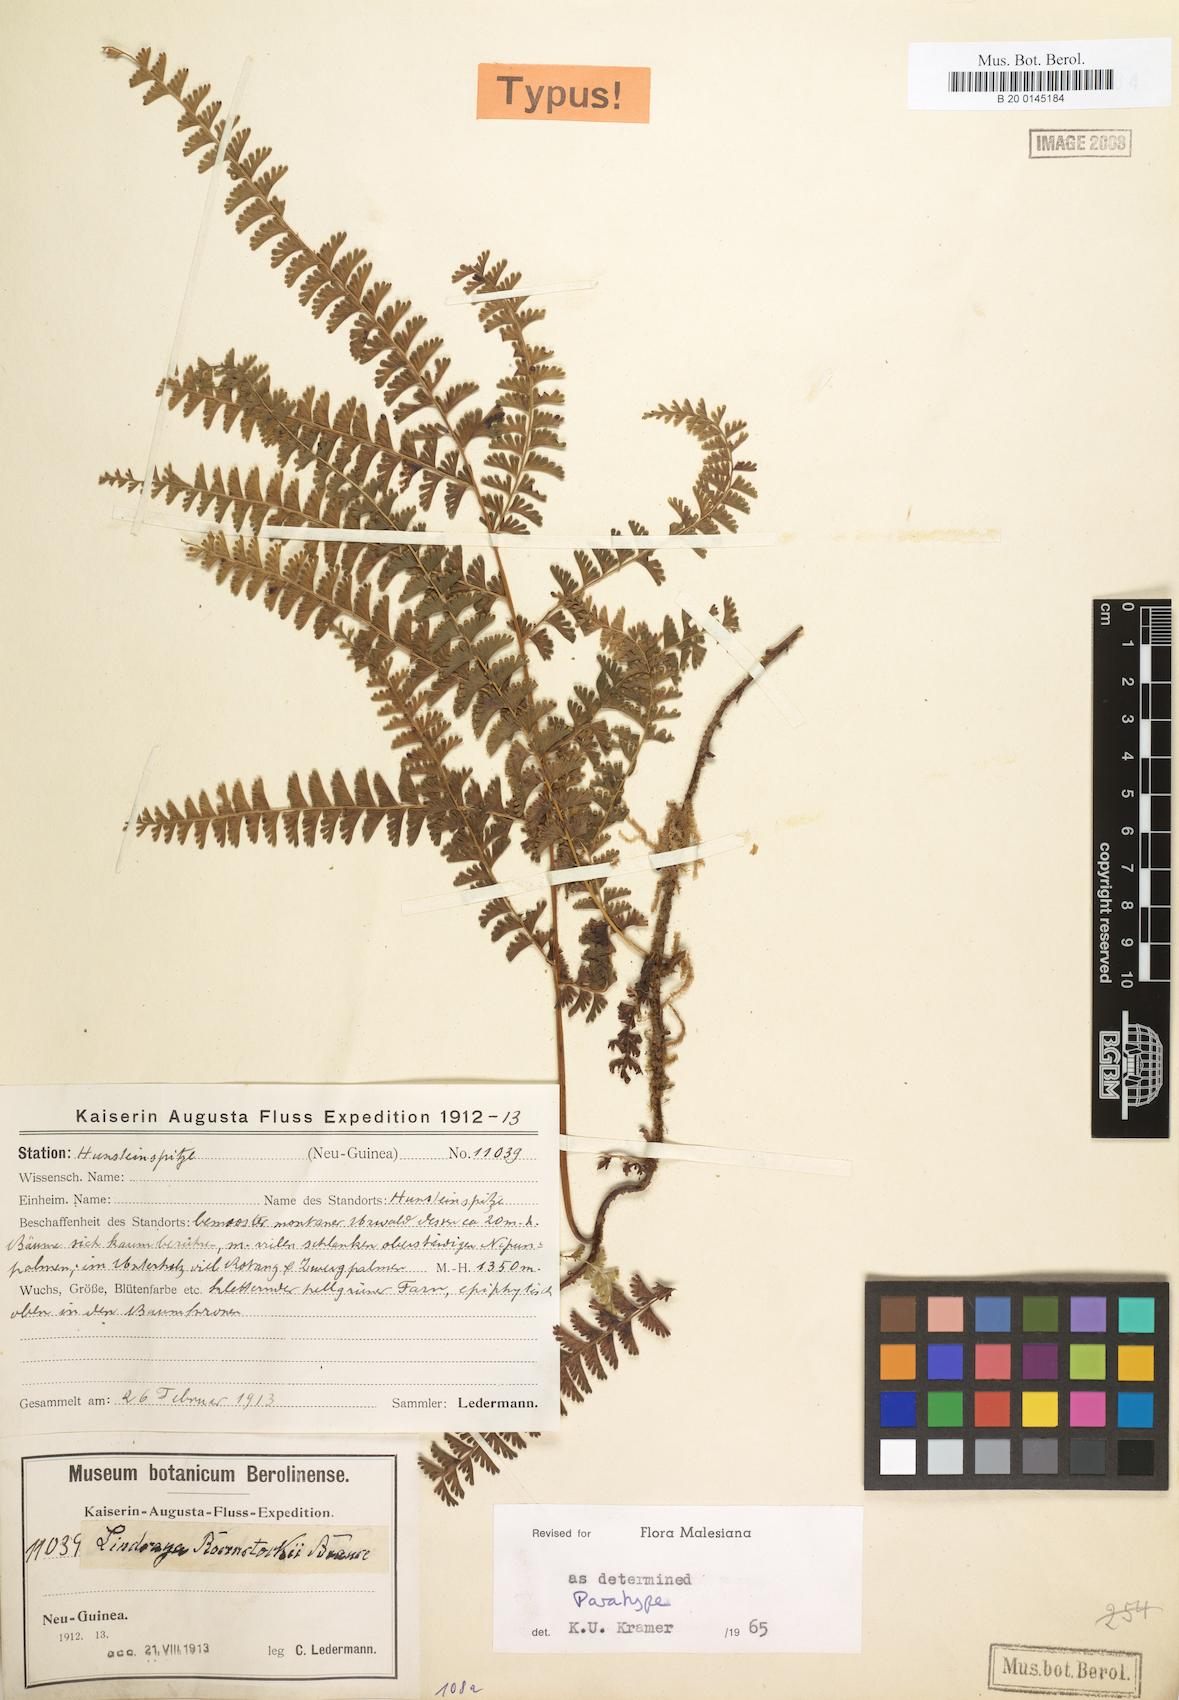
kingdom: Plantae
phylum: Tracheophyta
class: Polypodiopsida
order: Polypodiales
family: Lindsaeaceae
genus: Lindsaea
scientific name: Lindsaea rosenstockii
